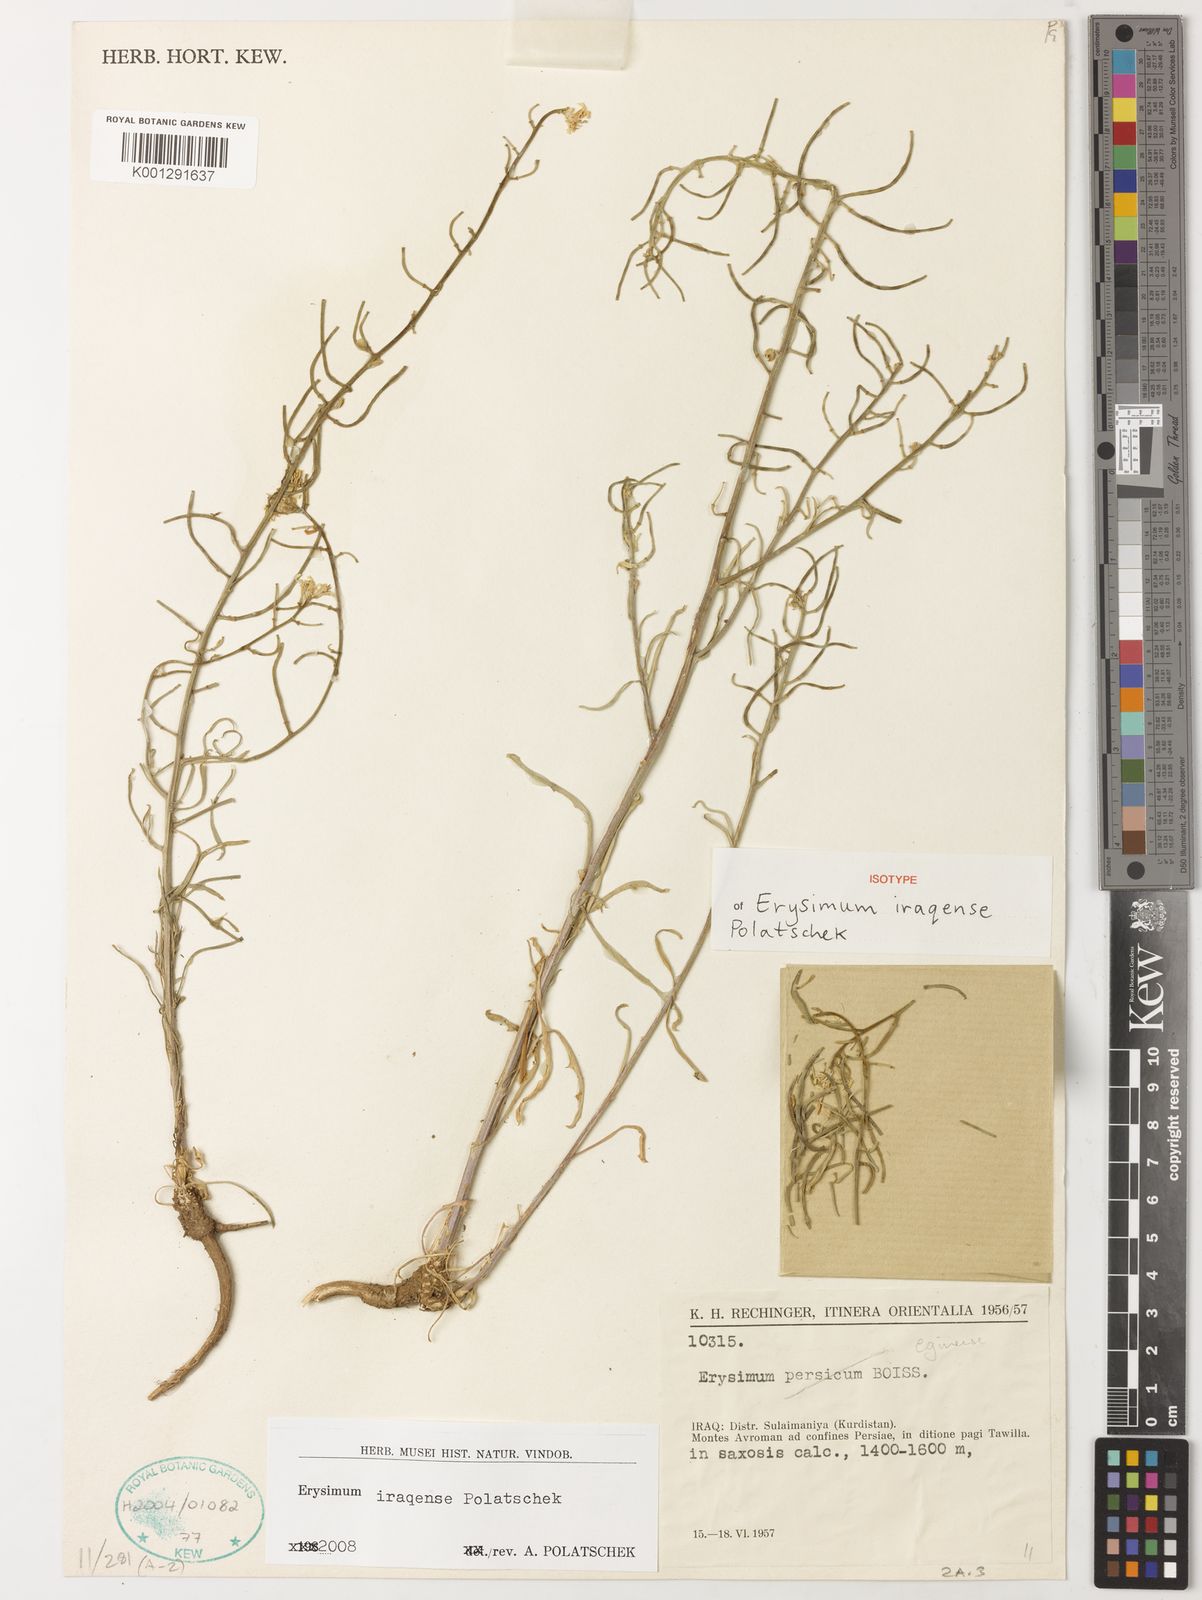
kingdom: Plantae
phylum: Tracheophyta
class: Magnoliopsida
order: Brassicales
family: Brassicaceae
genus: Erysimum
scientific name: Erysimum iraqense
